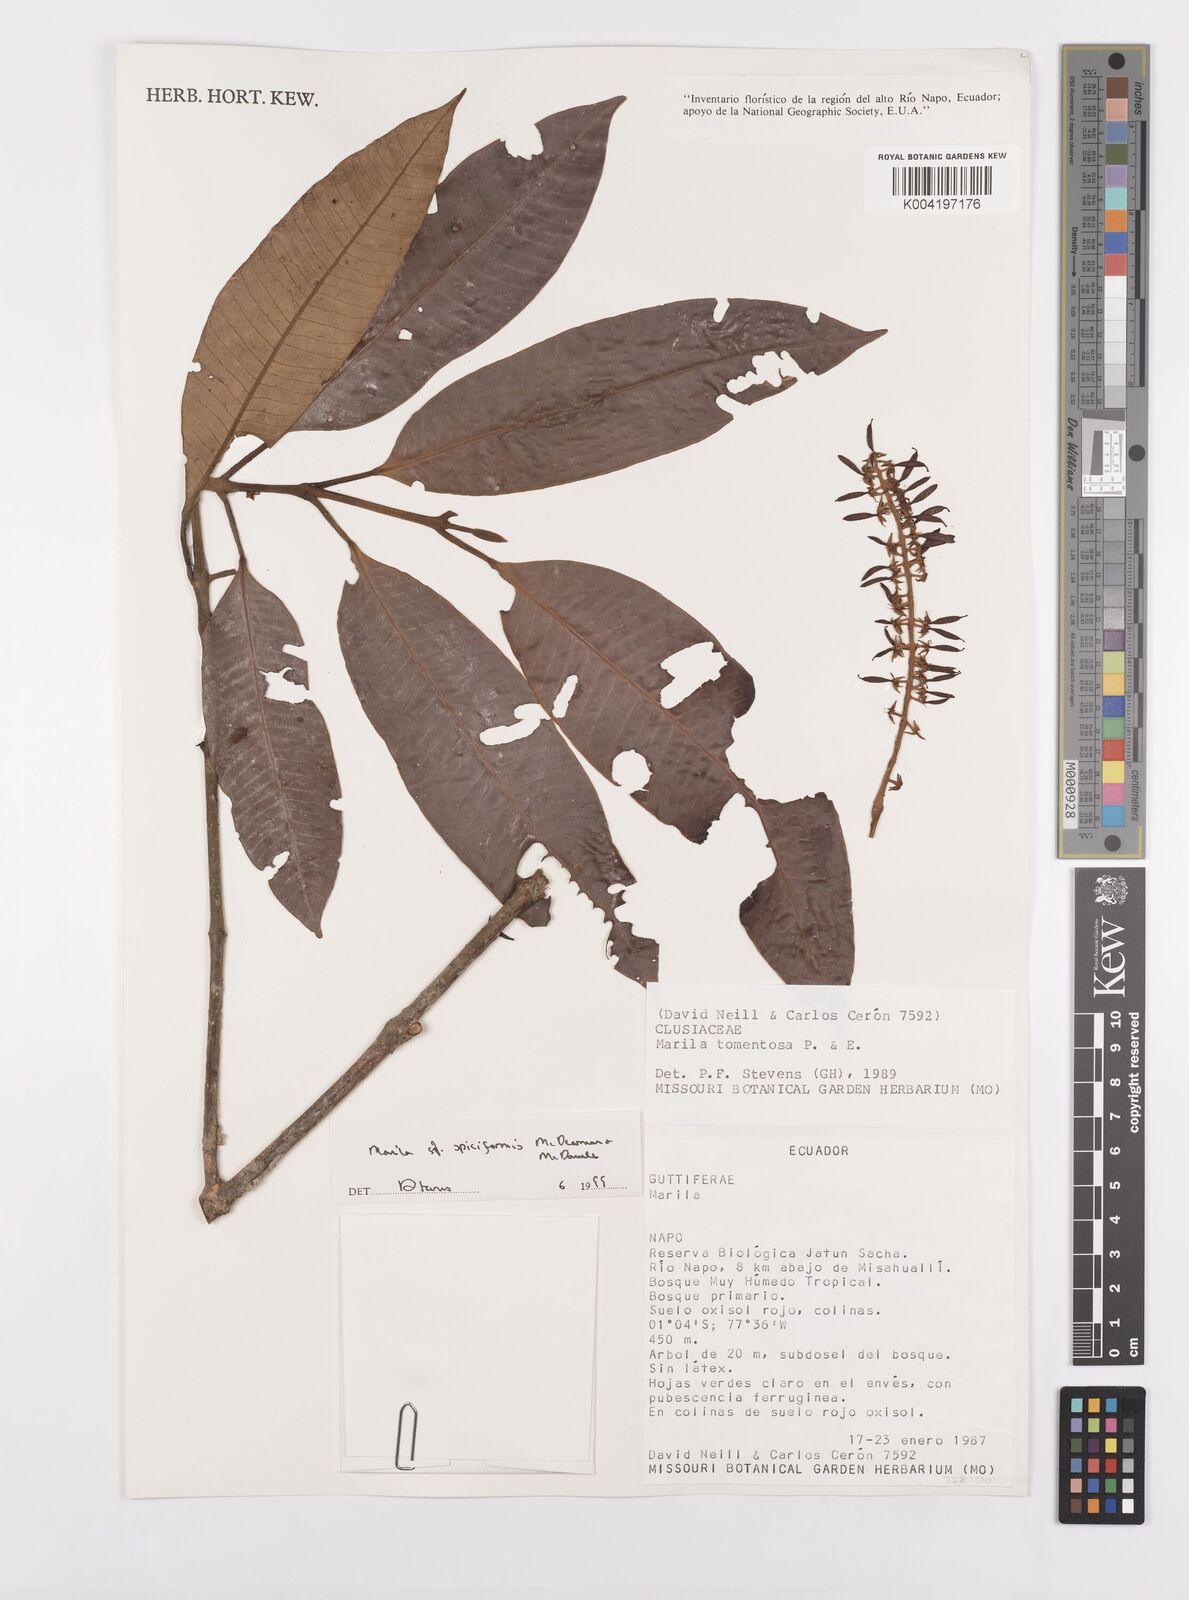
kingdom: Plantae
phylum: Tracheophyta
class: Magnoliopsida
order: Malpighiales
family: Calophyllaceae
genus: Marila
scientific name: Marila spiciformis
